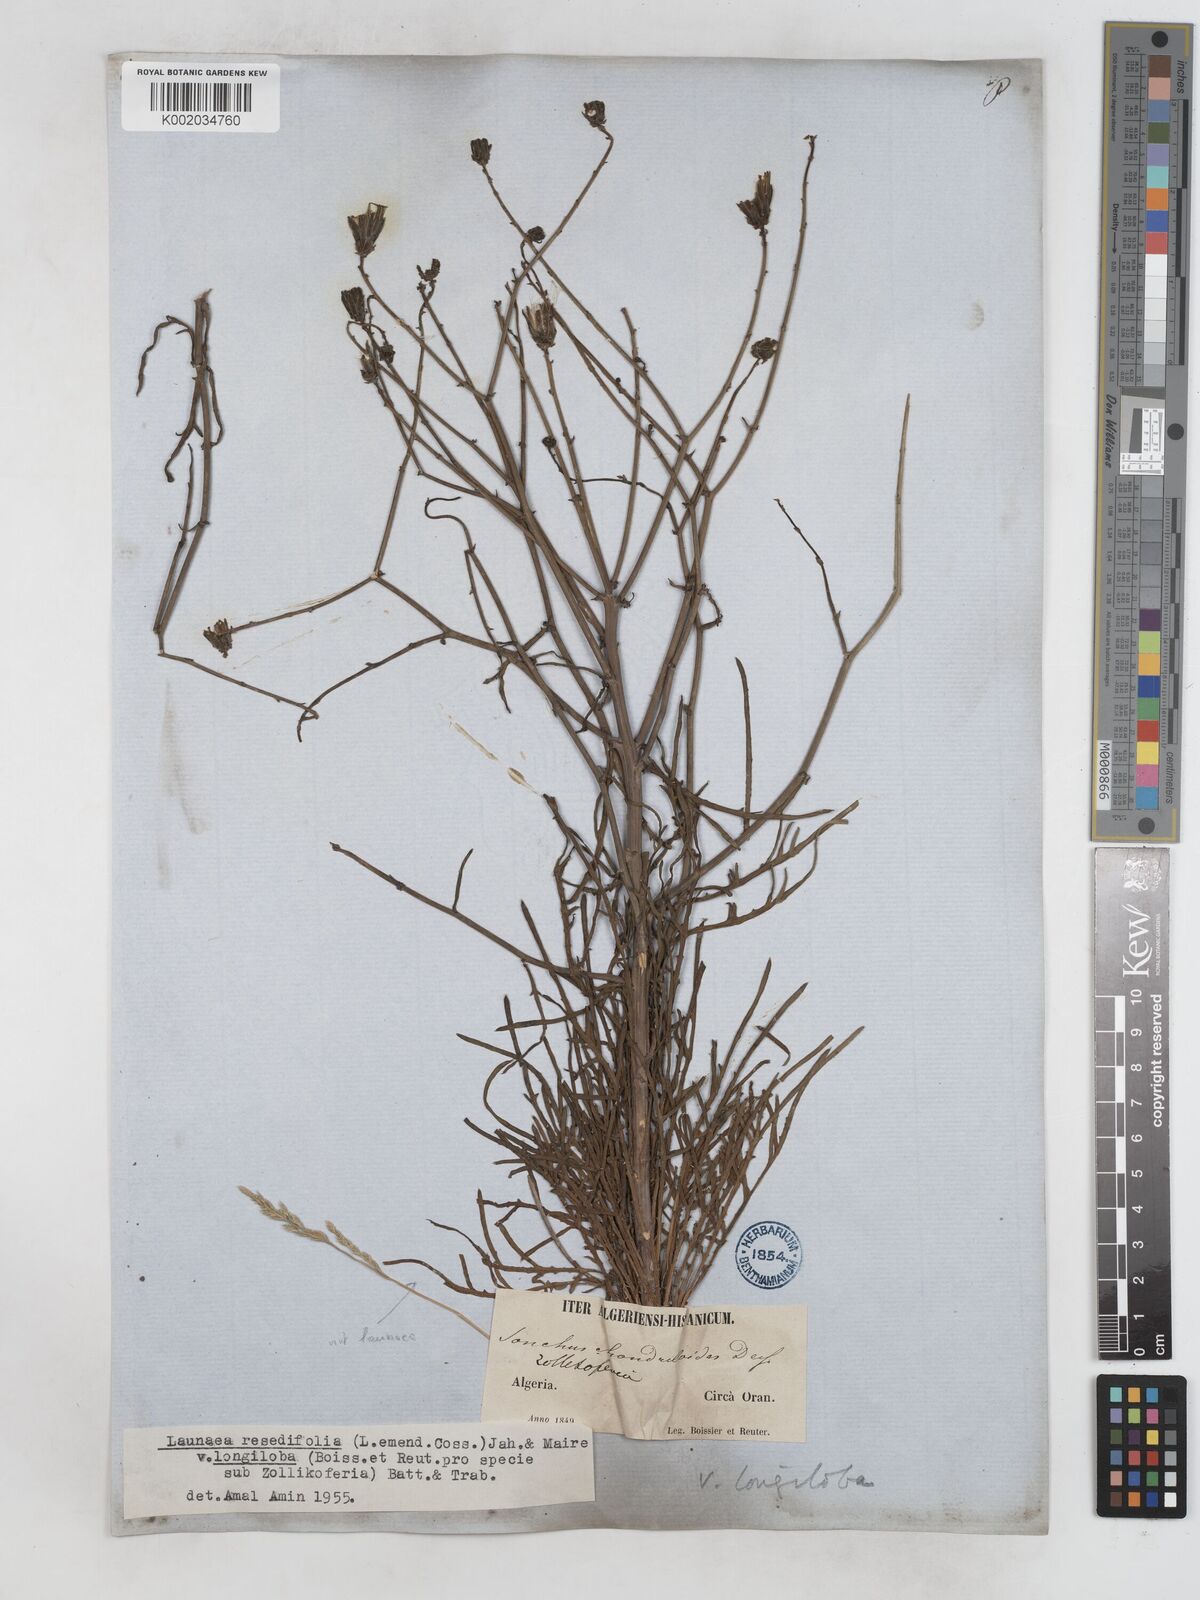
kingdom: Plantae
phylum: Tracheophyta
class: Magnoliopsida
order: Asterales
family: Asteraceae
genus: Launaea
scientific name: Launaea
